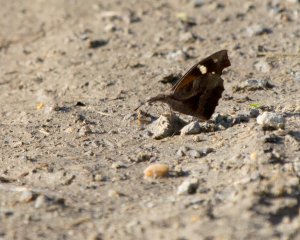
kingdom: Animalia
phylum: Arthropoda
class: Insecta
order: Lepidoptera
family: Nymphalidae
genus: Libytheana
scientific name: Libytheana carinenta
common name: American Snout
